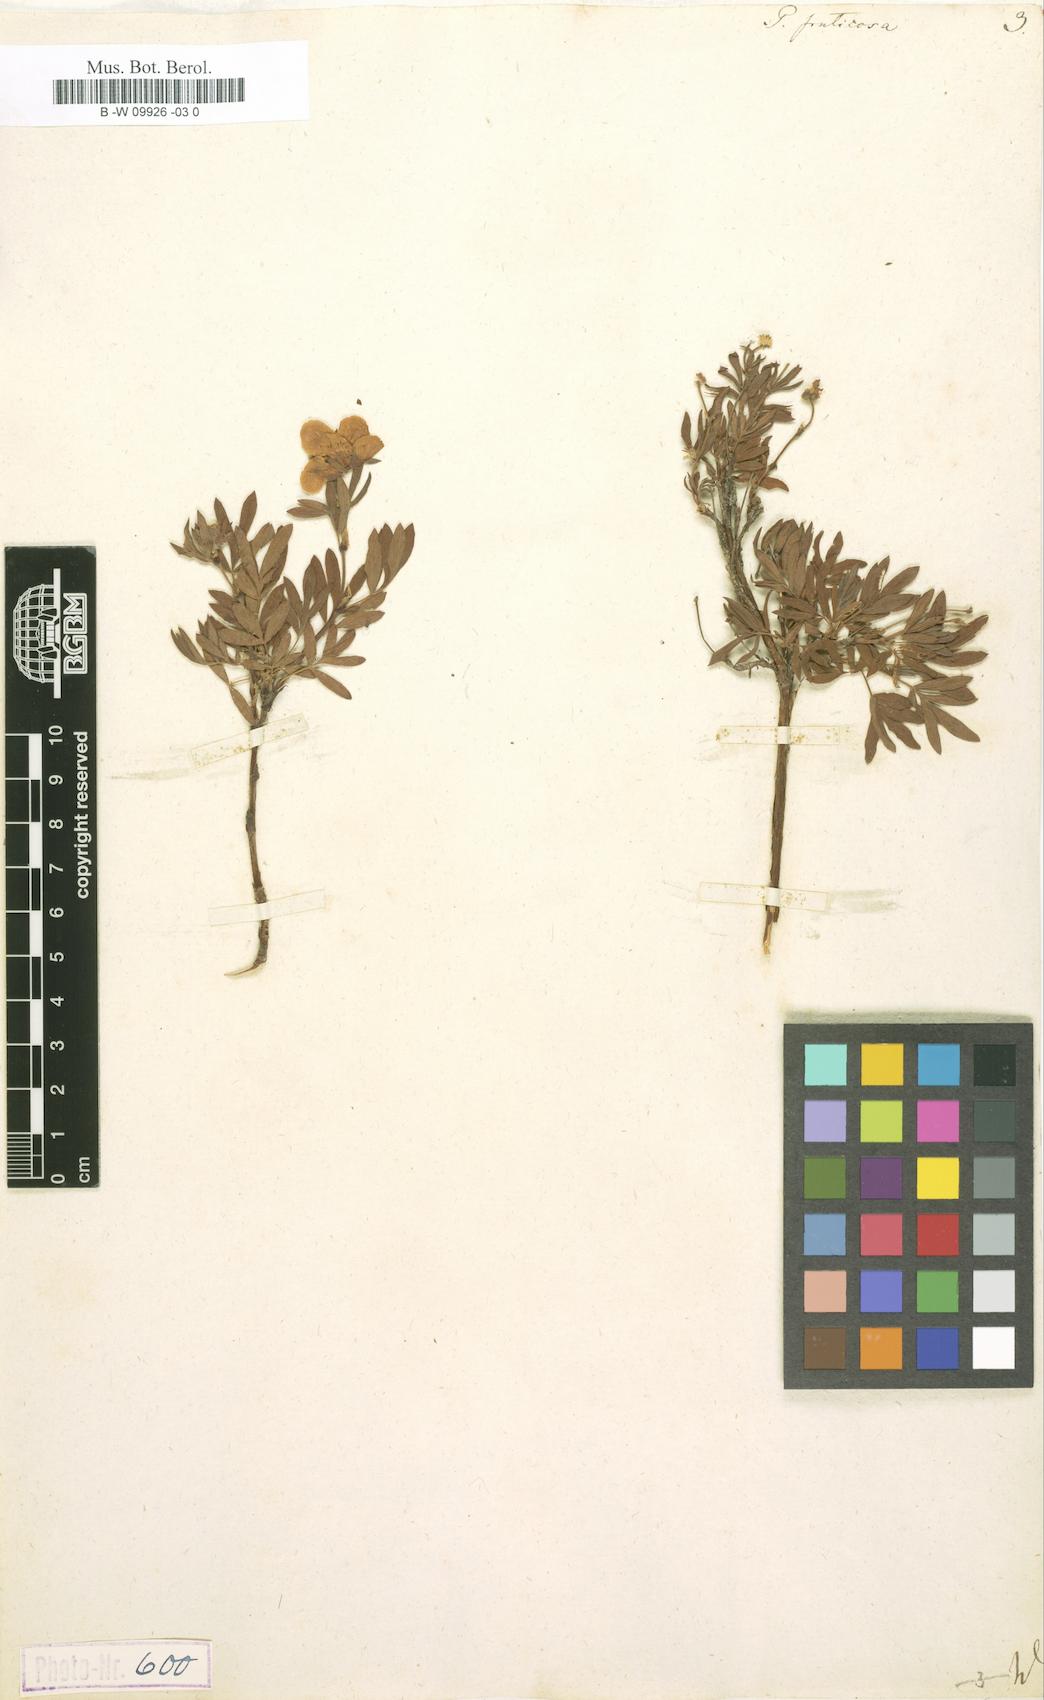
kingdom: Plantae
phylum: Tracheophyta
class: Magnoliopsida
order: Rosales
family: Rosaceae
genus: Dasiphora
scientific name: Dasiphora fruticosa
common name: Shrubby cinquefoil
